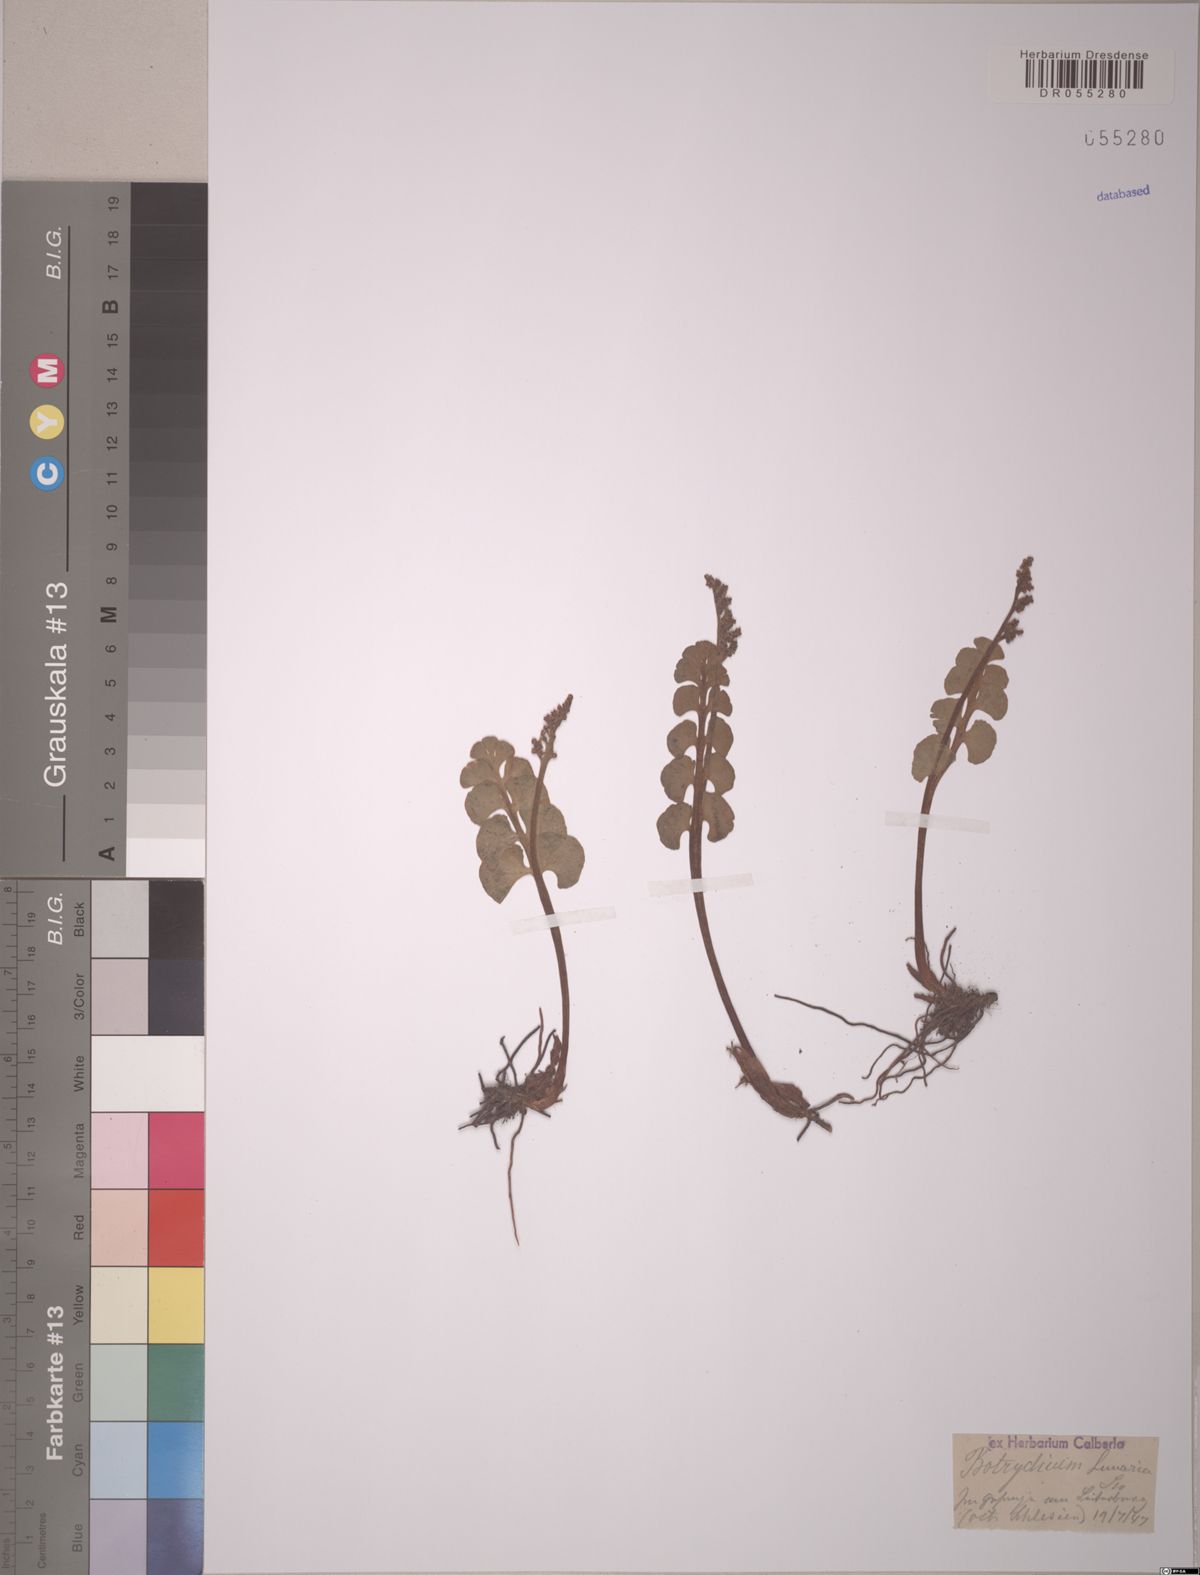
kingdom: Plantae
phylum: Tracheophyta
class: Polypodiopsida
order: Ophioglossales
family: Ophioglossaceae
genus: Botrychium
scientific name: Botrychium lunaria
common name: Moonwort
